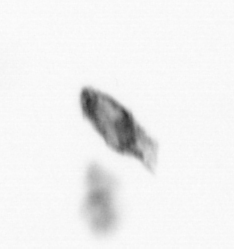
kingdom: Animalia
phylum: Arthropoda
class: Copepoda
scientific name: Copepoda
